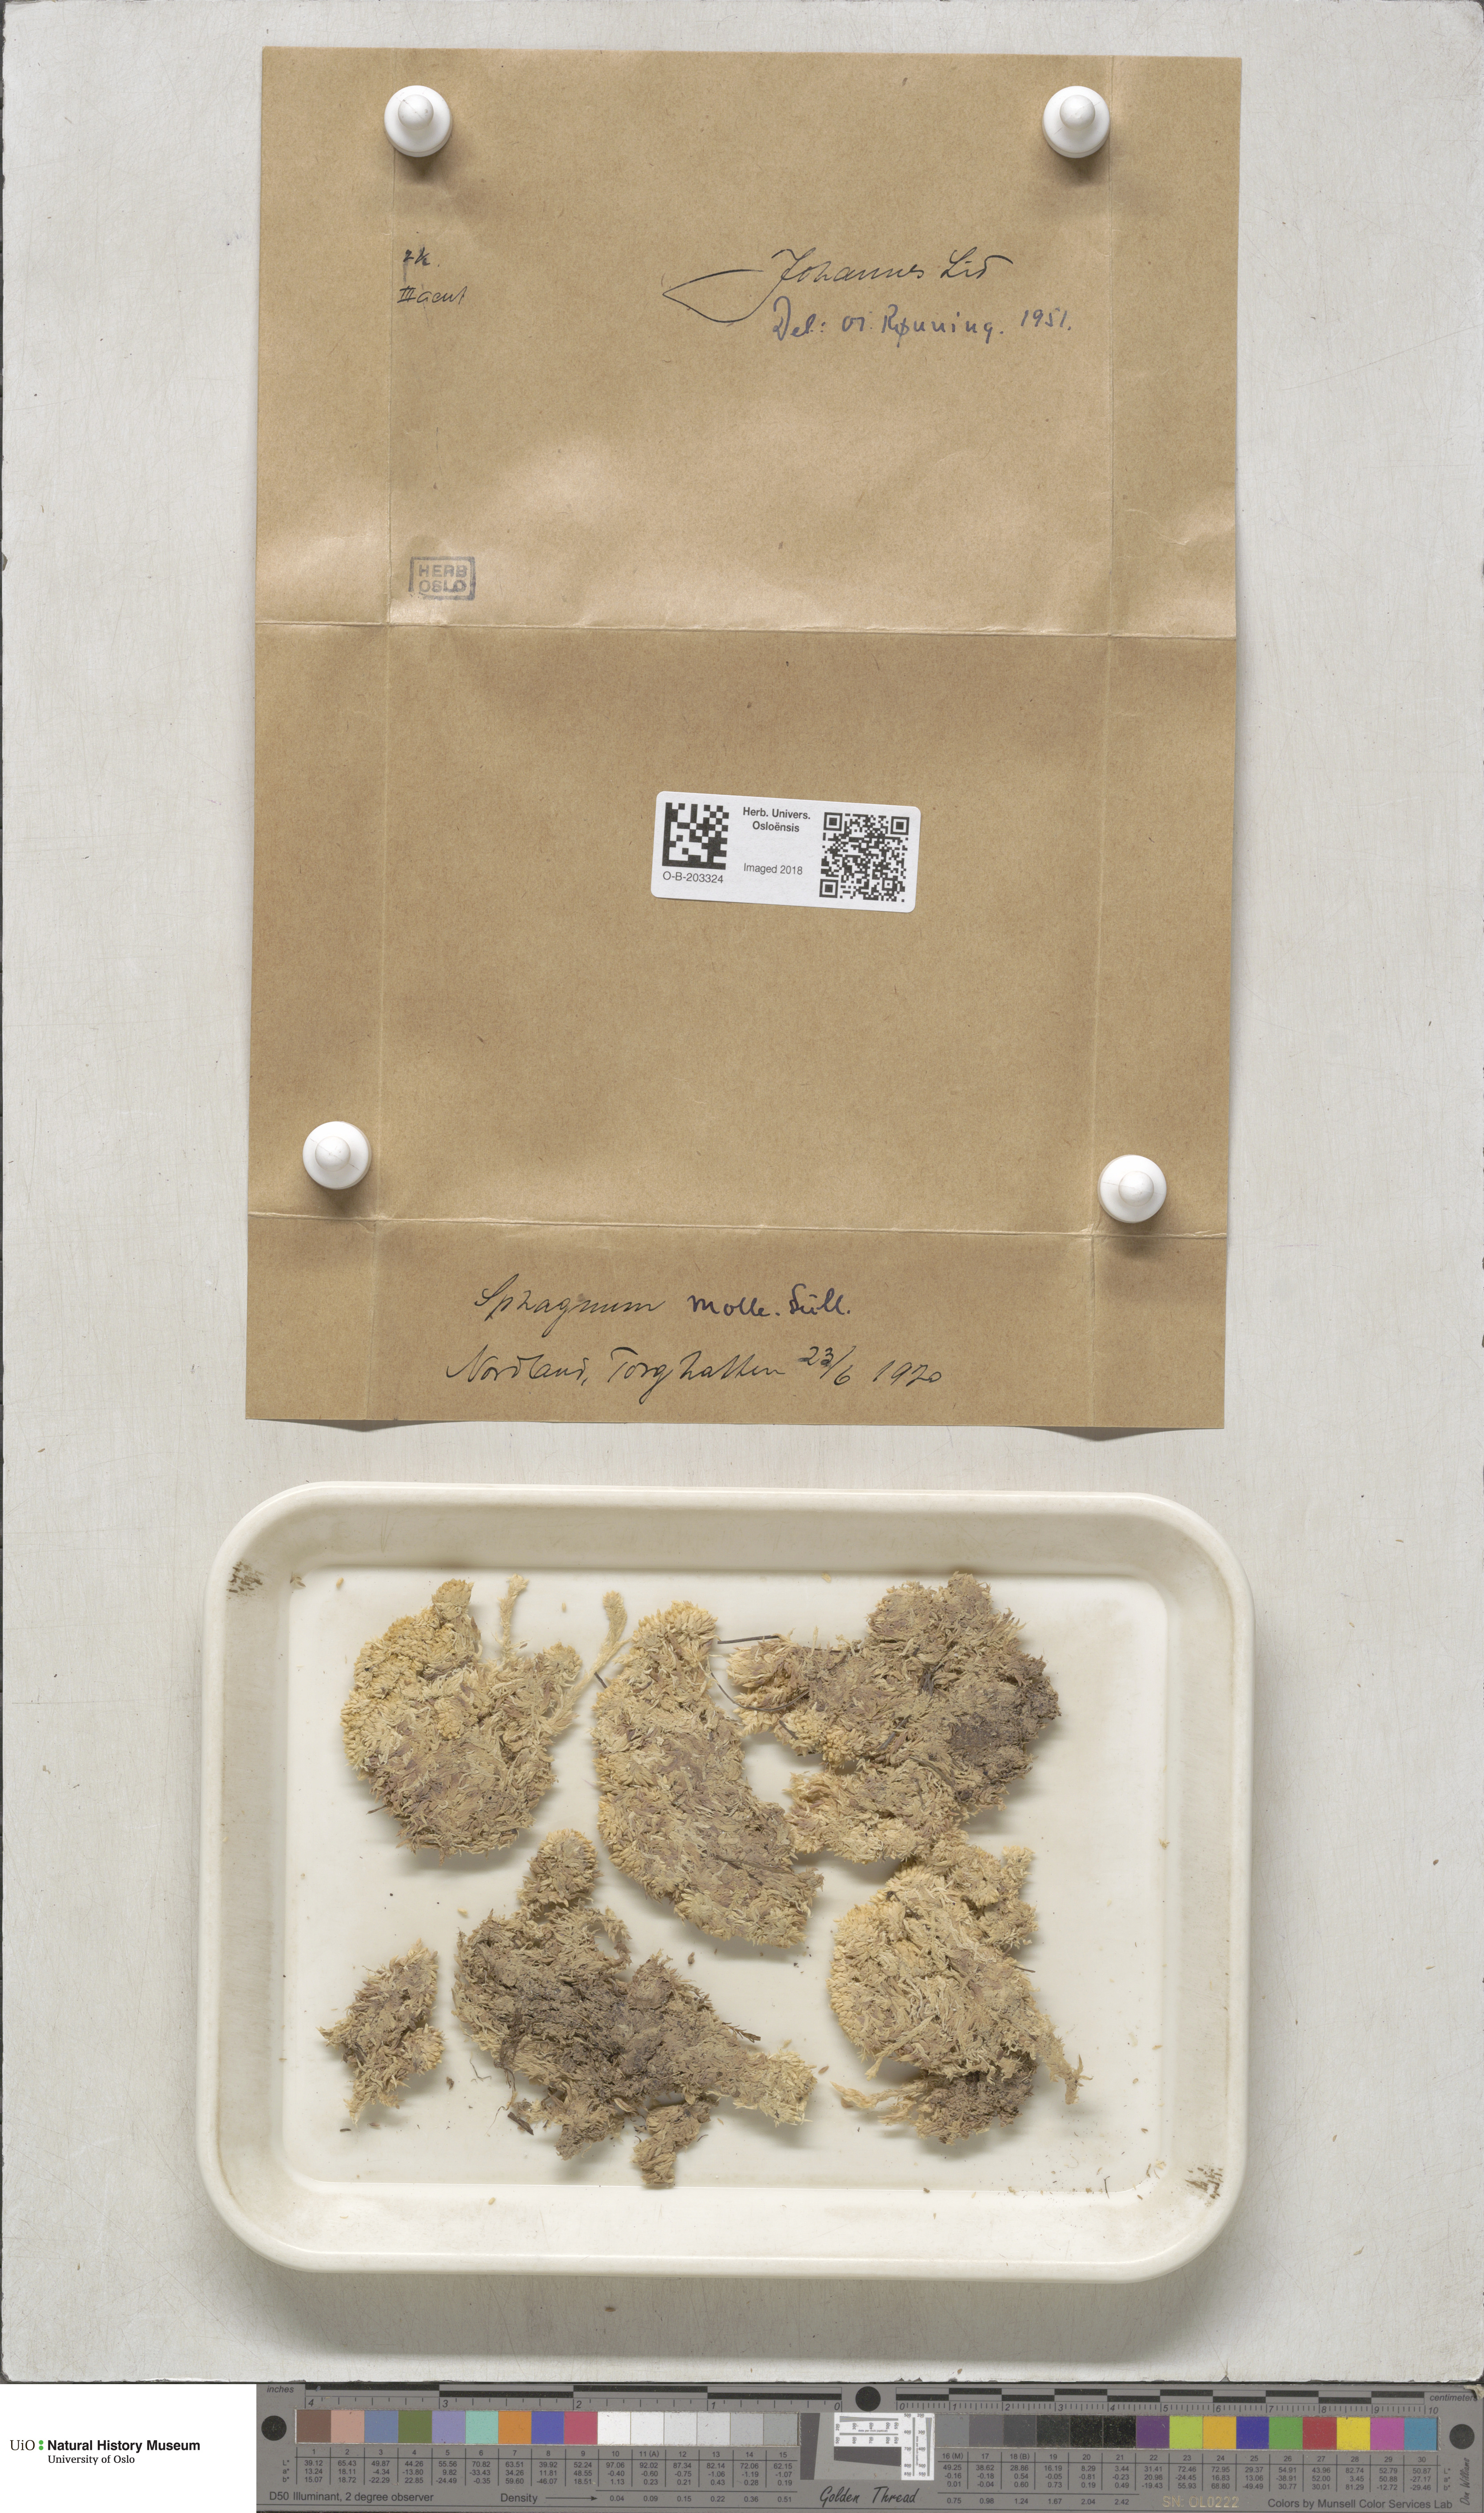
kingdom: Plantae
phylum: Bryophyta
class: Sphagnopsida
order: Sphagnales
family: Sphagnaceae
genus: Sphagnum
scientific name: Sphagnum molle
